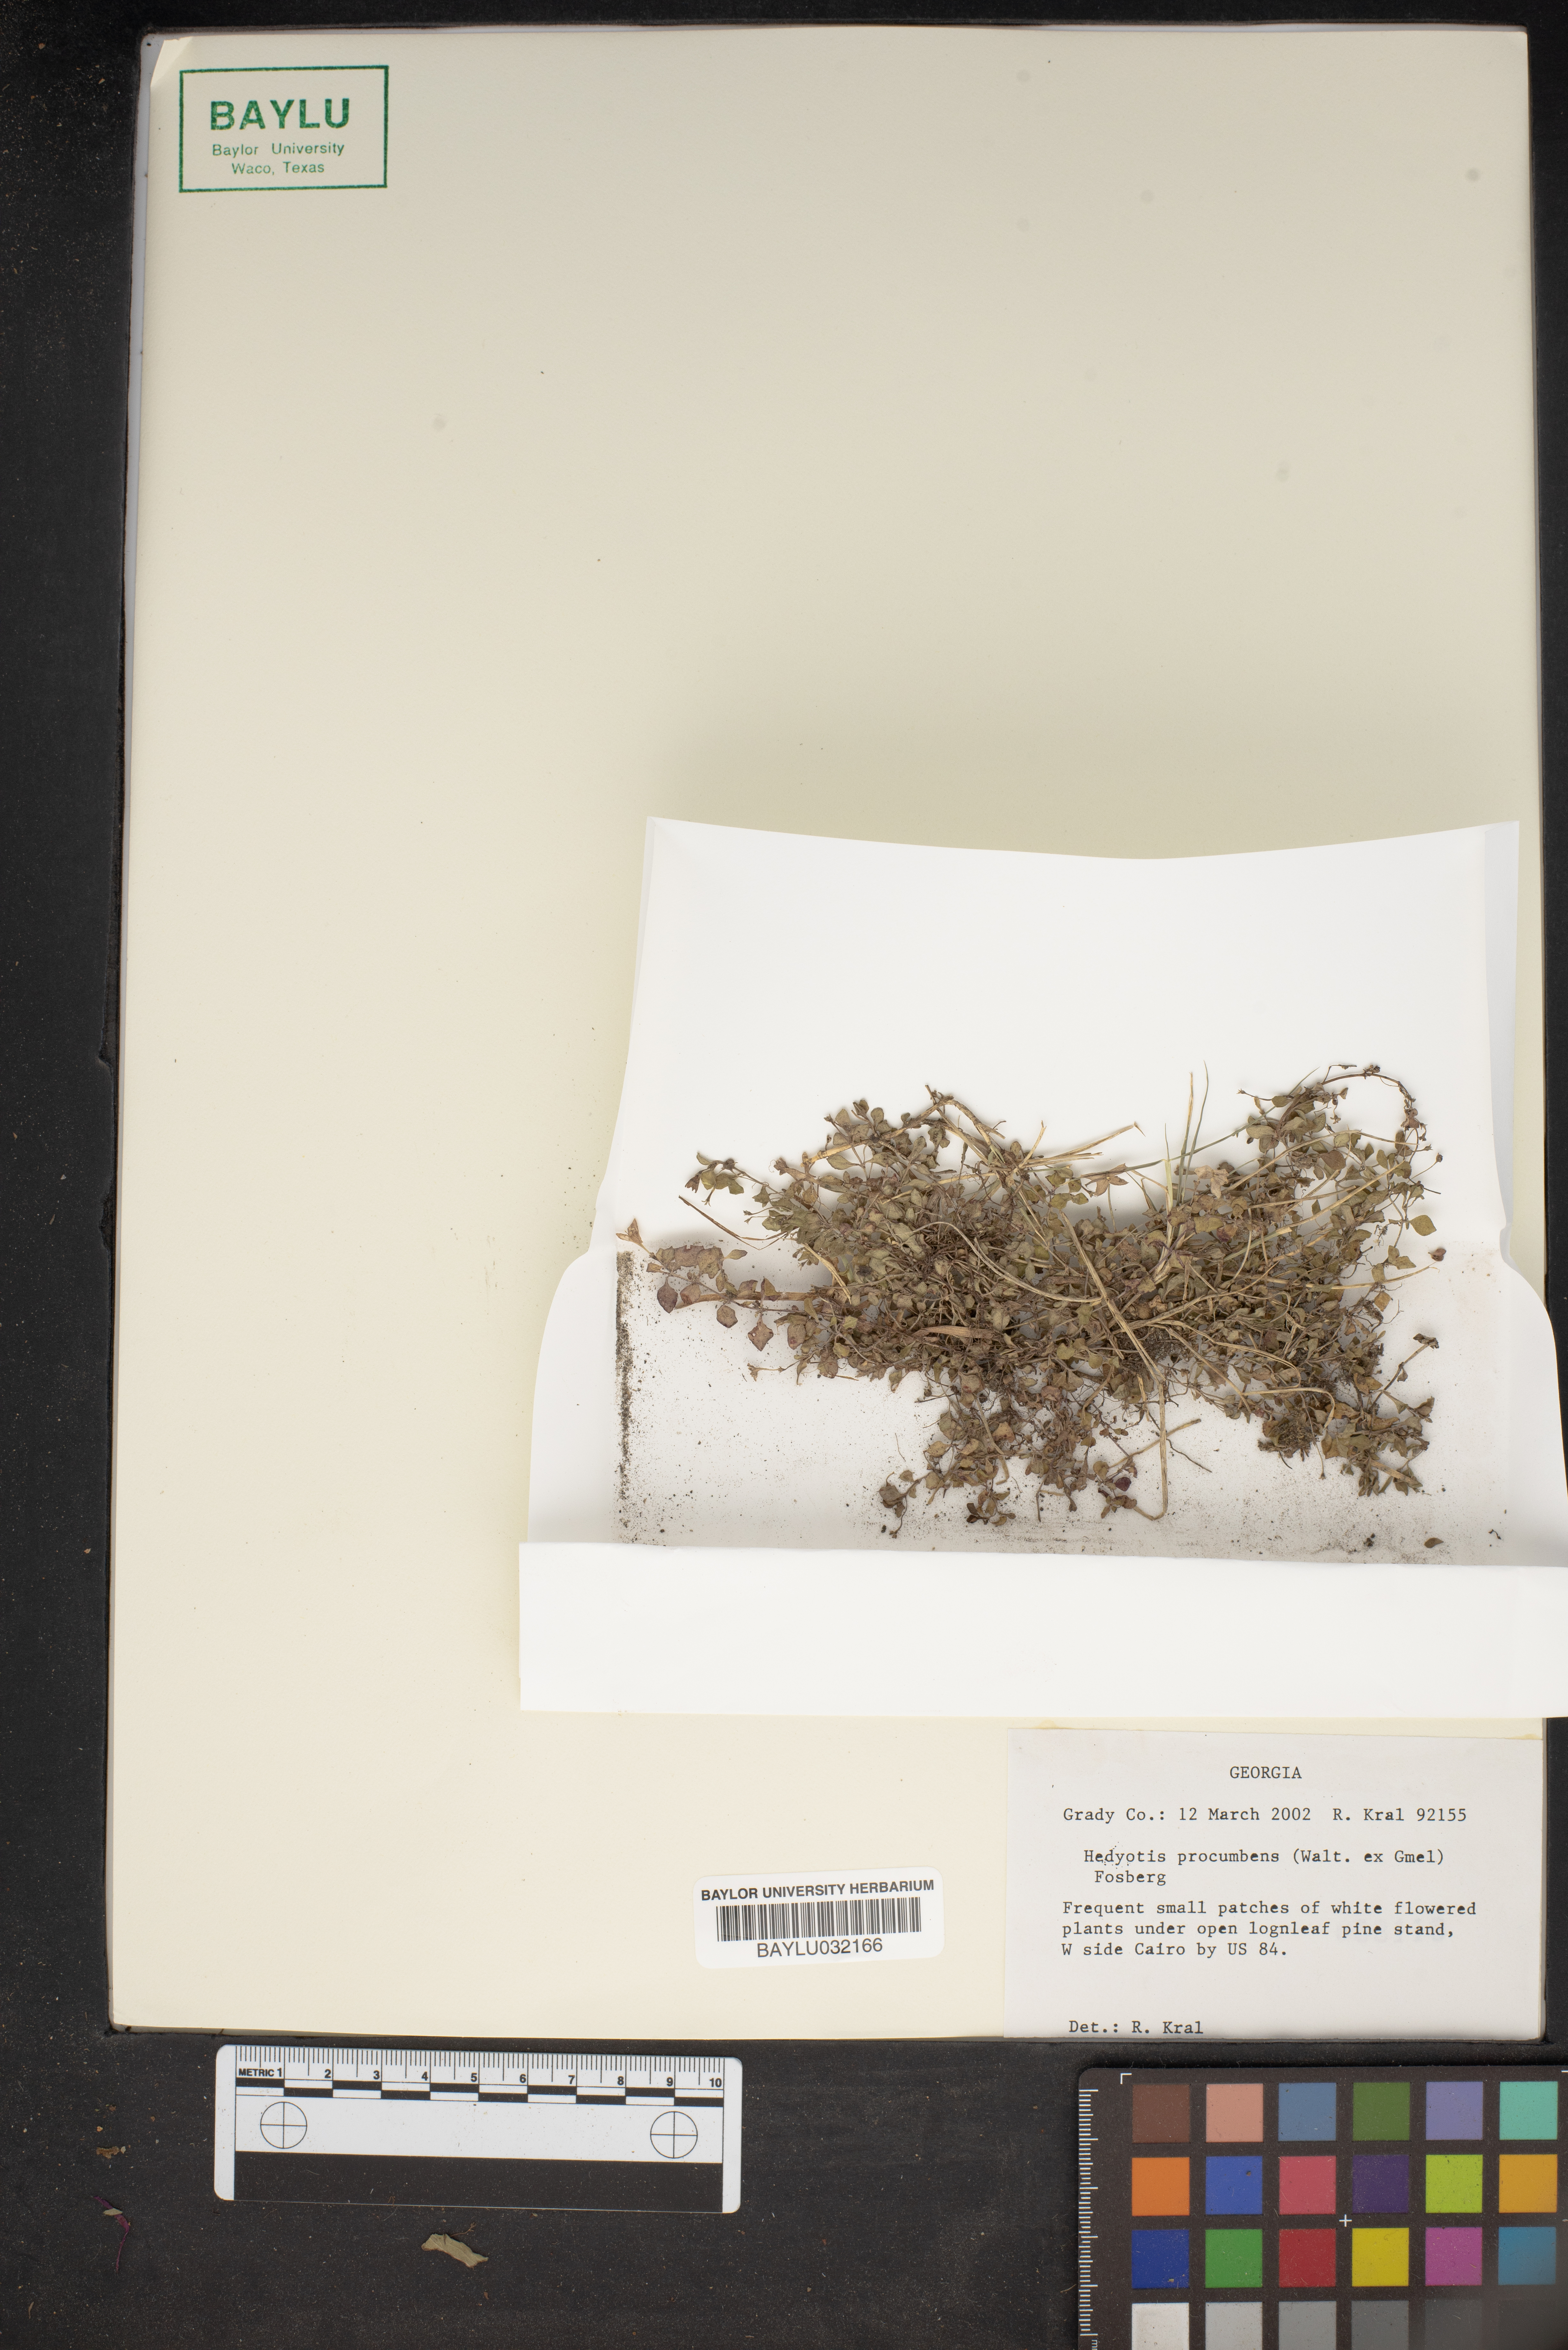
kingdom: Plantae
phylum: Tracheophyta
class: Magnoliopsida
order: Gentianales
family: Rubiaceae
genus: Houstonia
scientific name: Houstonia procumbens
